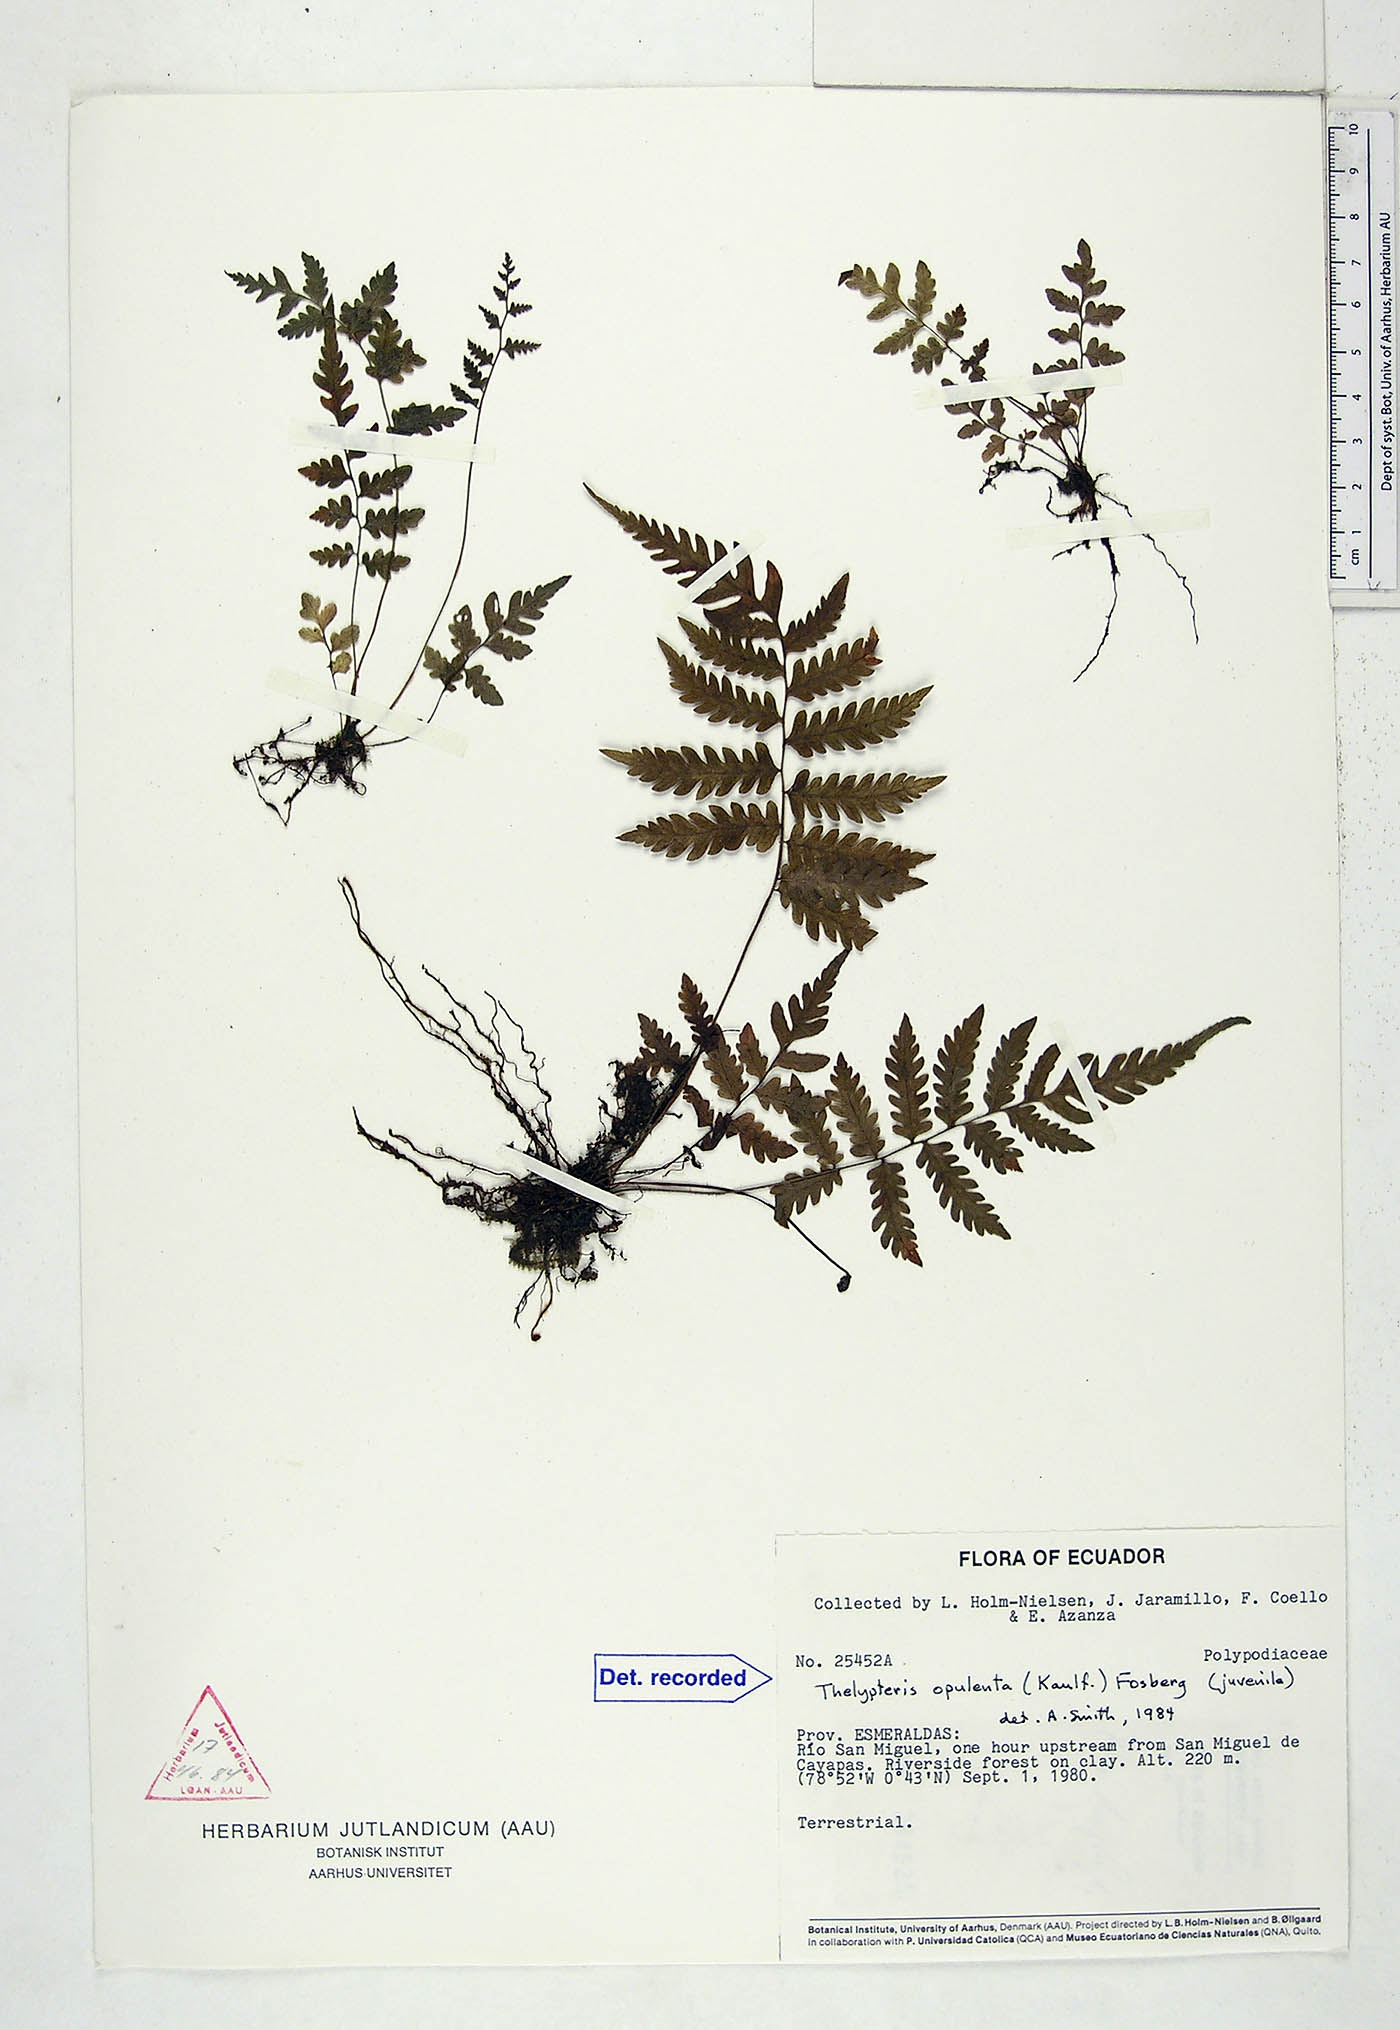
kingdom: Plantae
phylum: Tracheophyta
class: Polypodiopsida
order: Polypodiales
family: Thelypteridaceae
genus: Amblovenatum
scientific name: Amblovenatum opulentum
